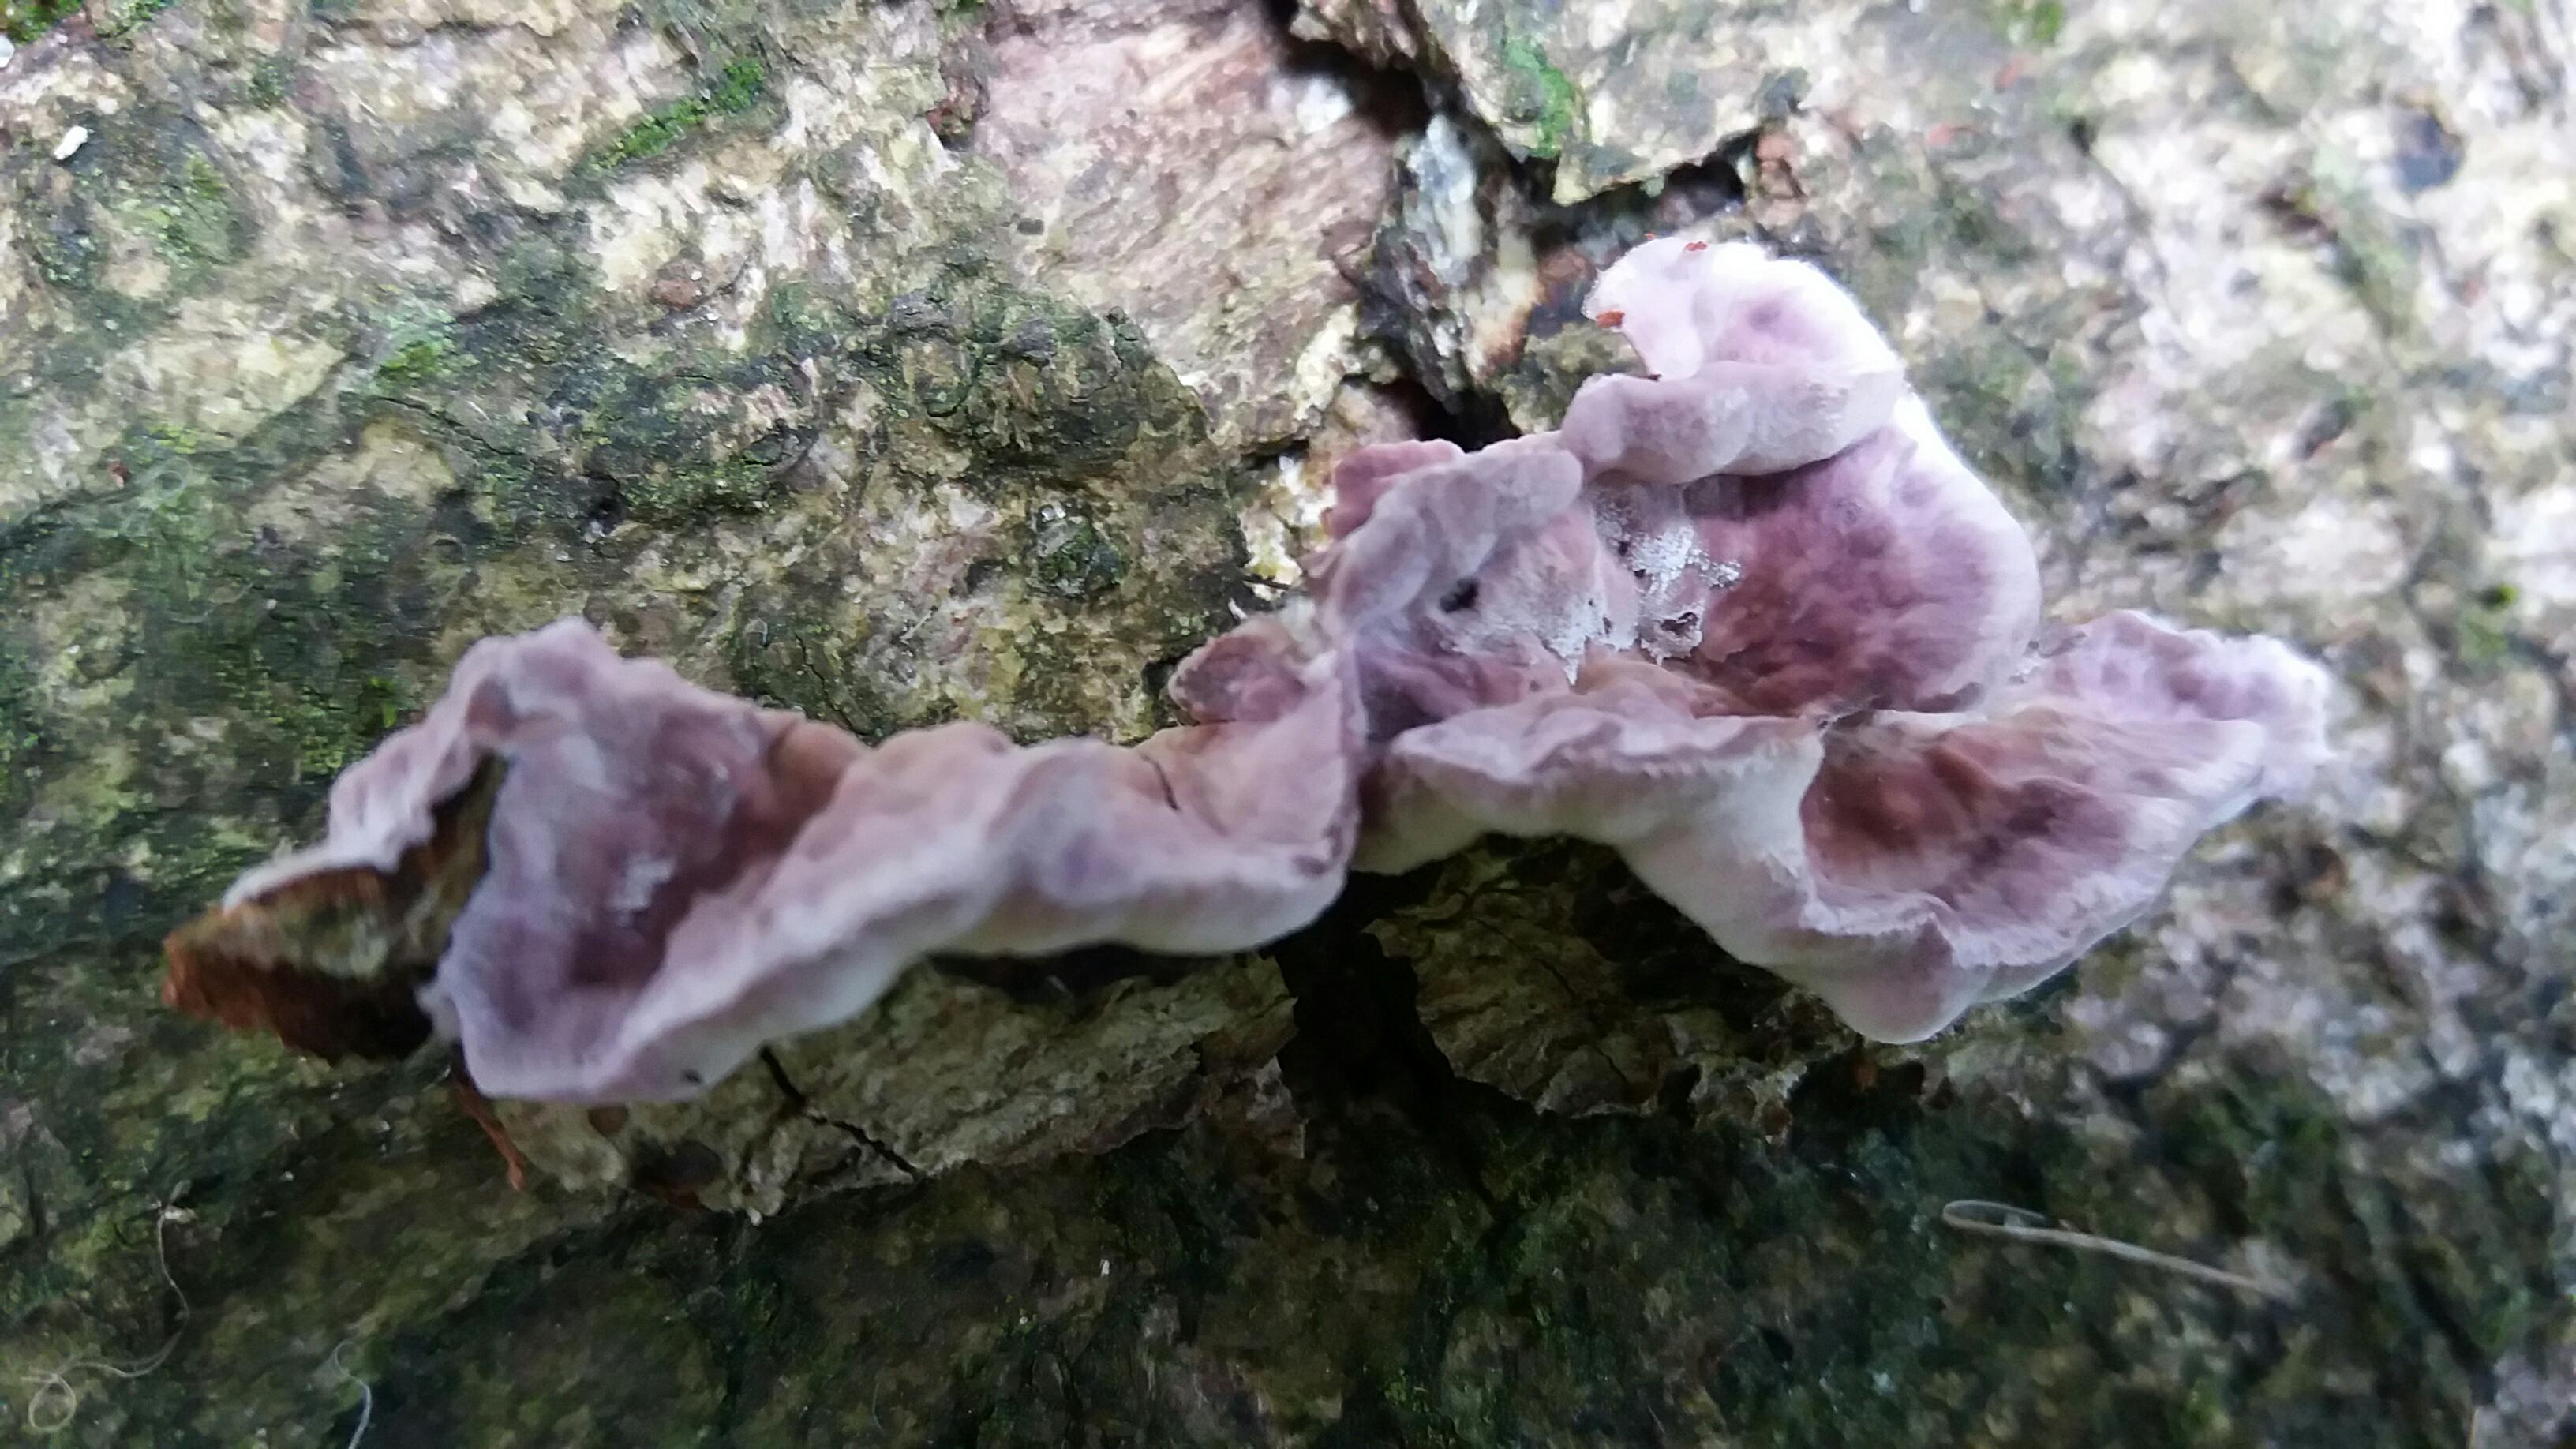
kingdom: Fungi
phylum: Basidiomycota
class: Agaricomycetes
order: Agaricales
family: Cyphellaceae
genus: Chondrostereum
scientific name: Chondrostereum purpureum
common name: purpurlædersvamp
